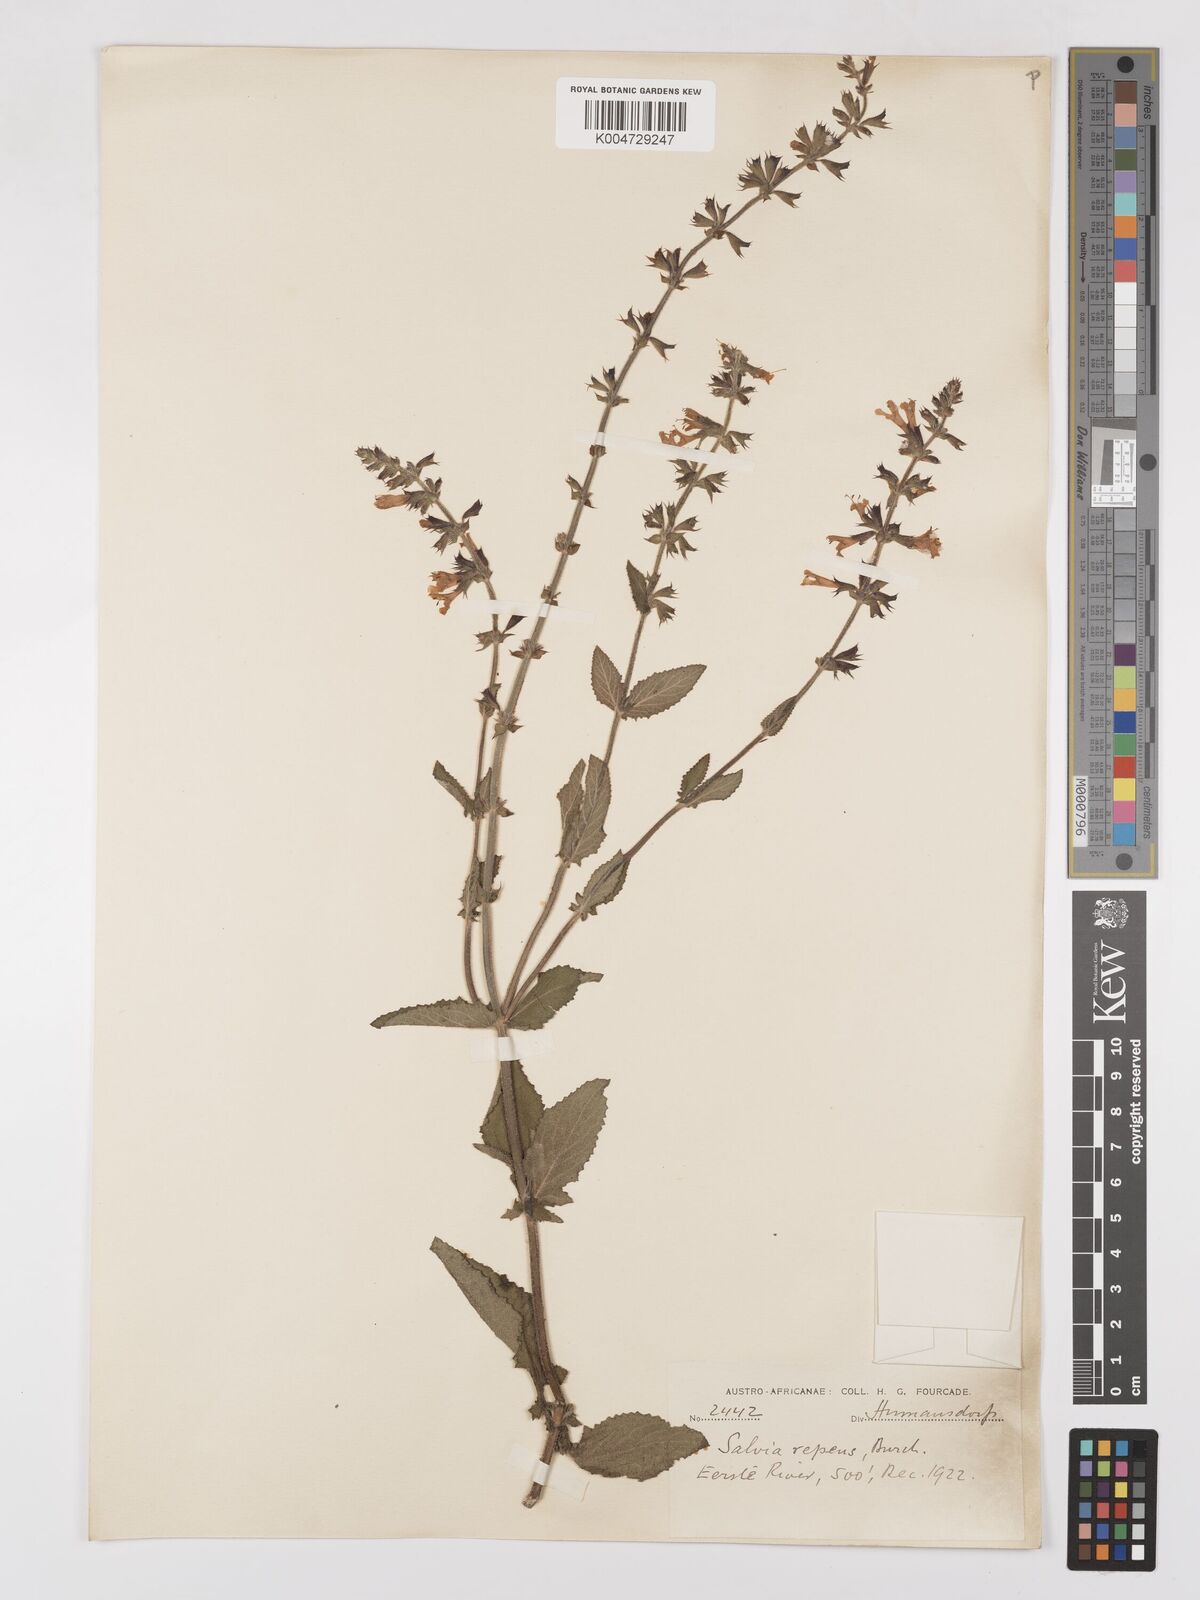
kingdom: Plantae
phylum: Tracheophyta
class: Magnoliopsida
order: Lamiales
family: Lamiaceae
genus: Salvia
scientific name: Salvia repens
